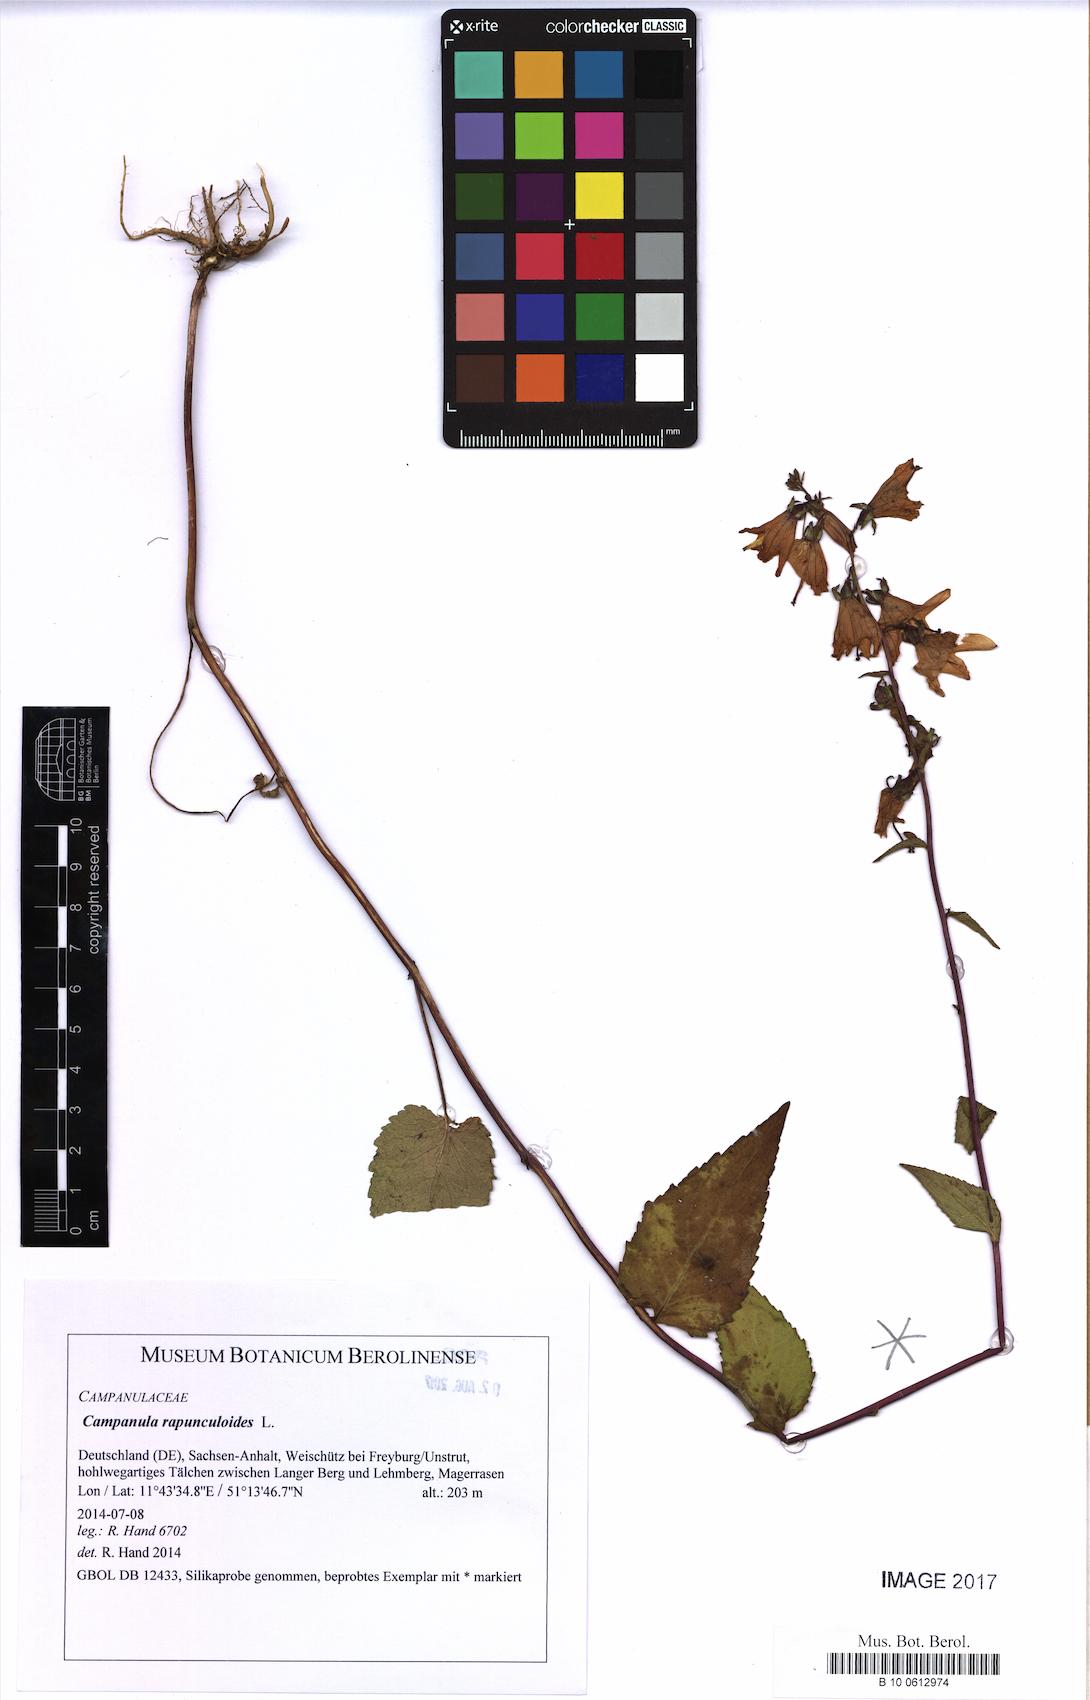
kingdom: Plantae
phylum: Tracheophyta
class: Magnoliopsida
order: Asterales
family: Campanulaceae
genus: Campanula
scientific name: Campanula rapunculoides
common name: Creeping bellflower
